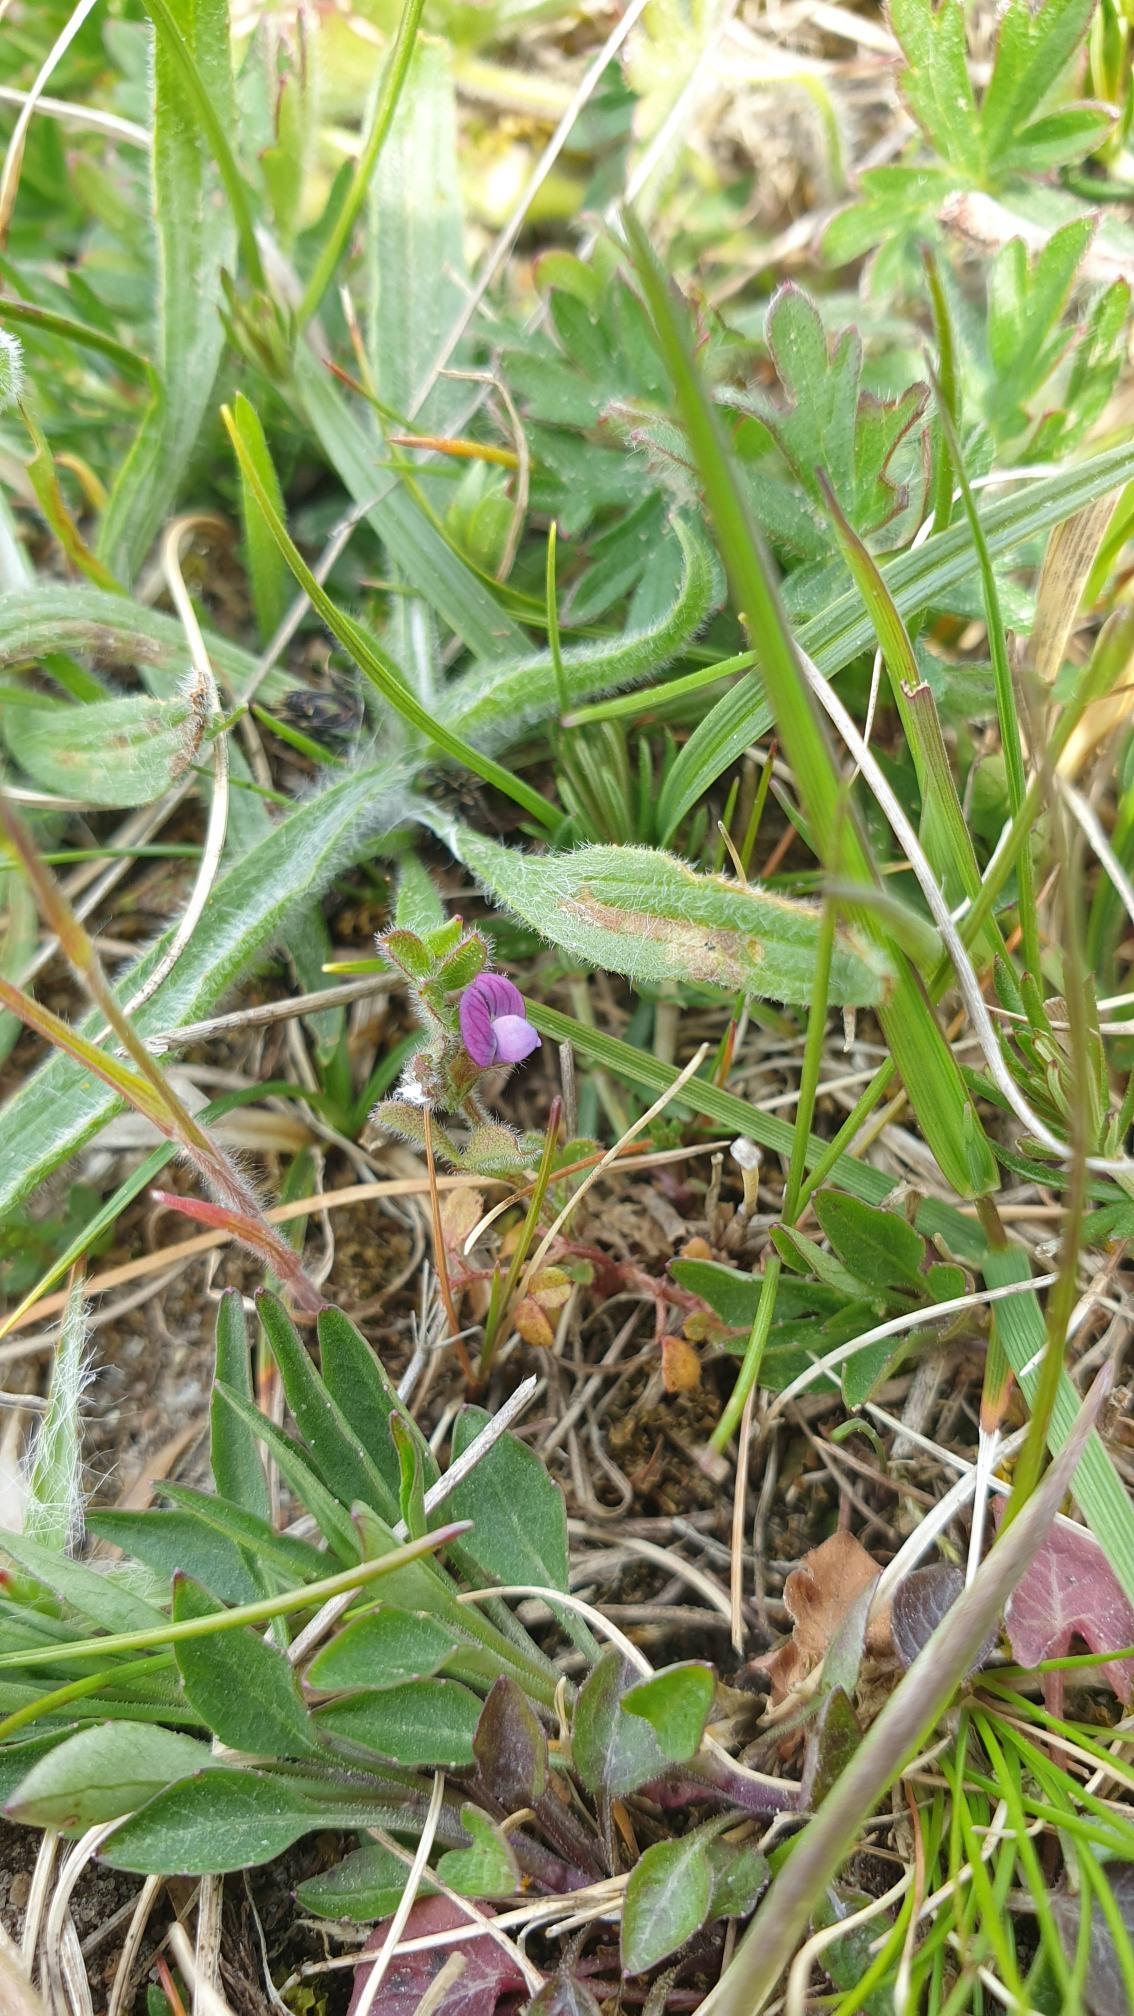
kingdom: Plantae
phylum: Tracheophyta
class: Magnoliopsida
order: Fabales
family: Fabaceae
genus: Vicia
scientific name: Vicia lathyroides
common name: Vår-vikke
